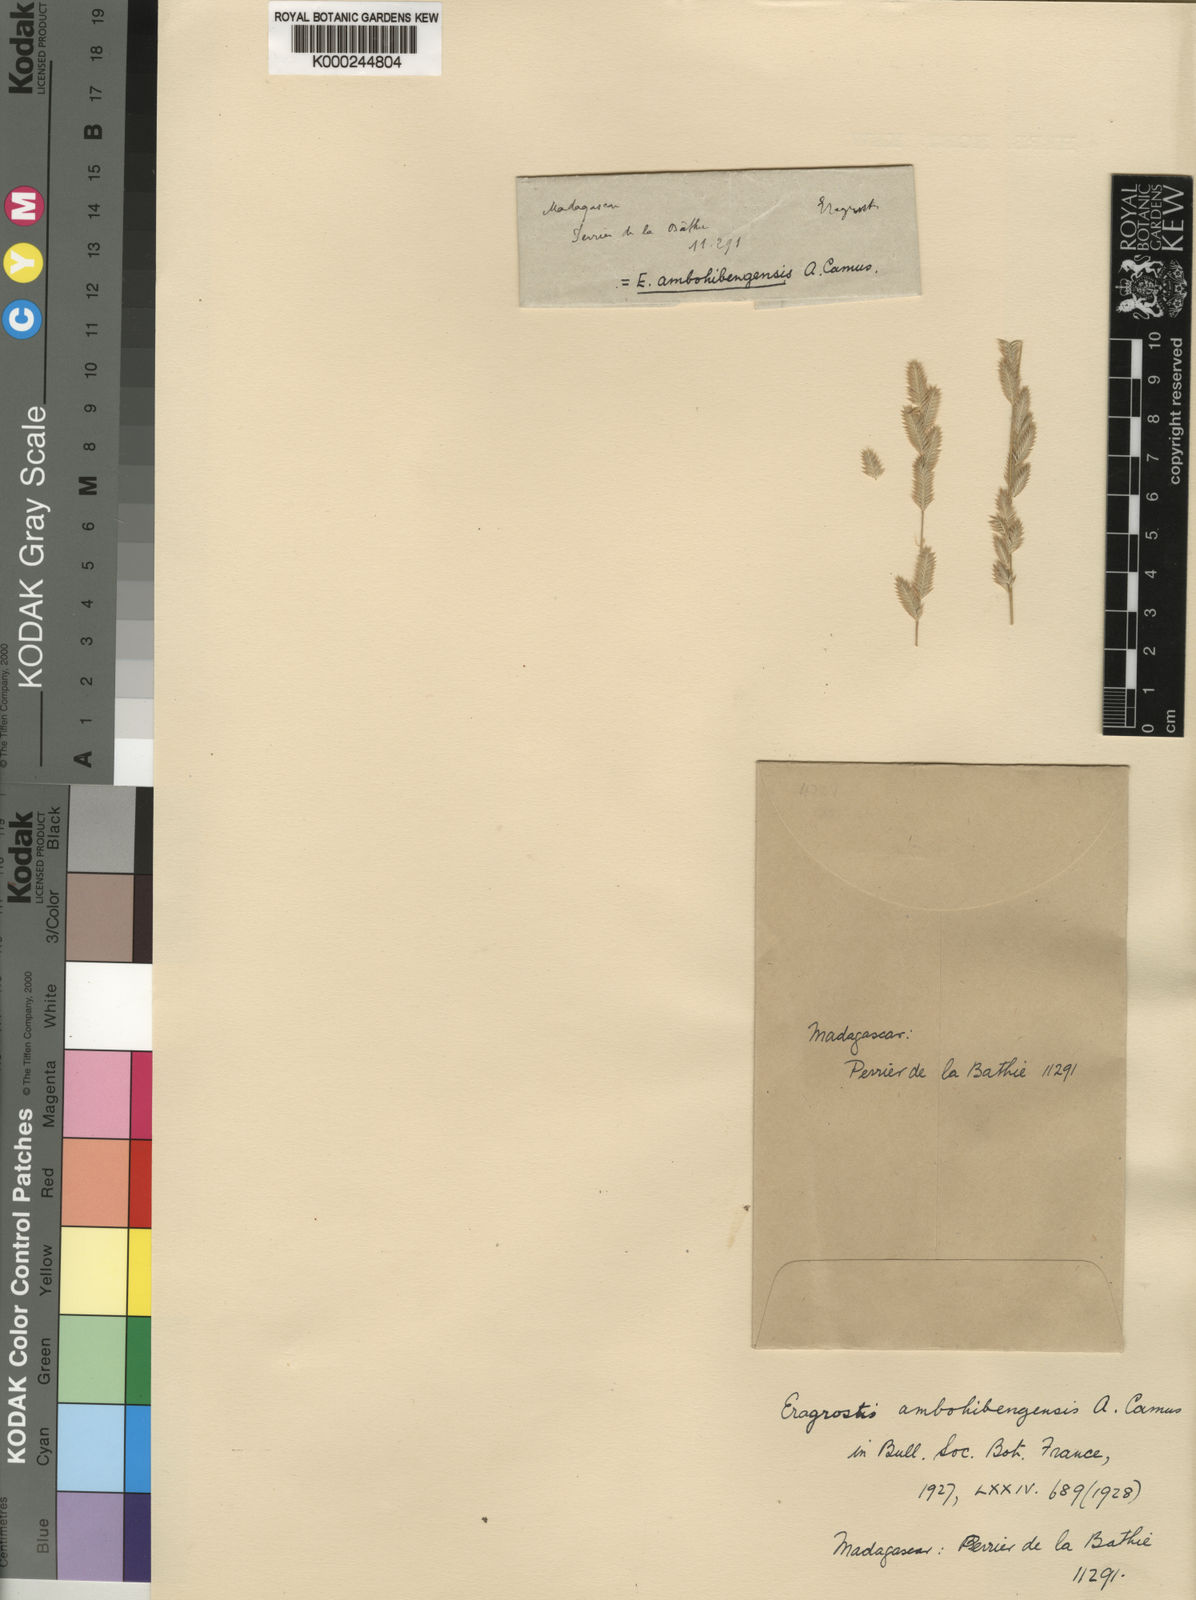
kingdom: Plantae
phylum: Tracheophyta
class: Liliopsida
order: Poales
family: Poaceae
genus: Eragrostis
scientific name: Eragrostis ambohibengensis
